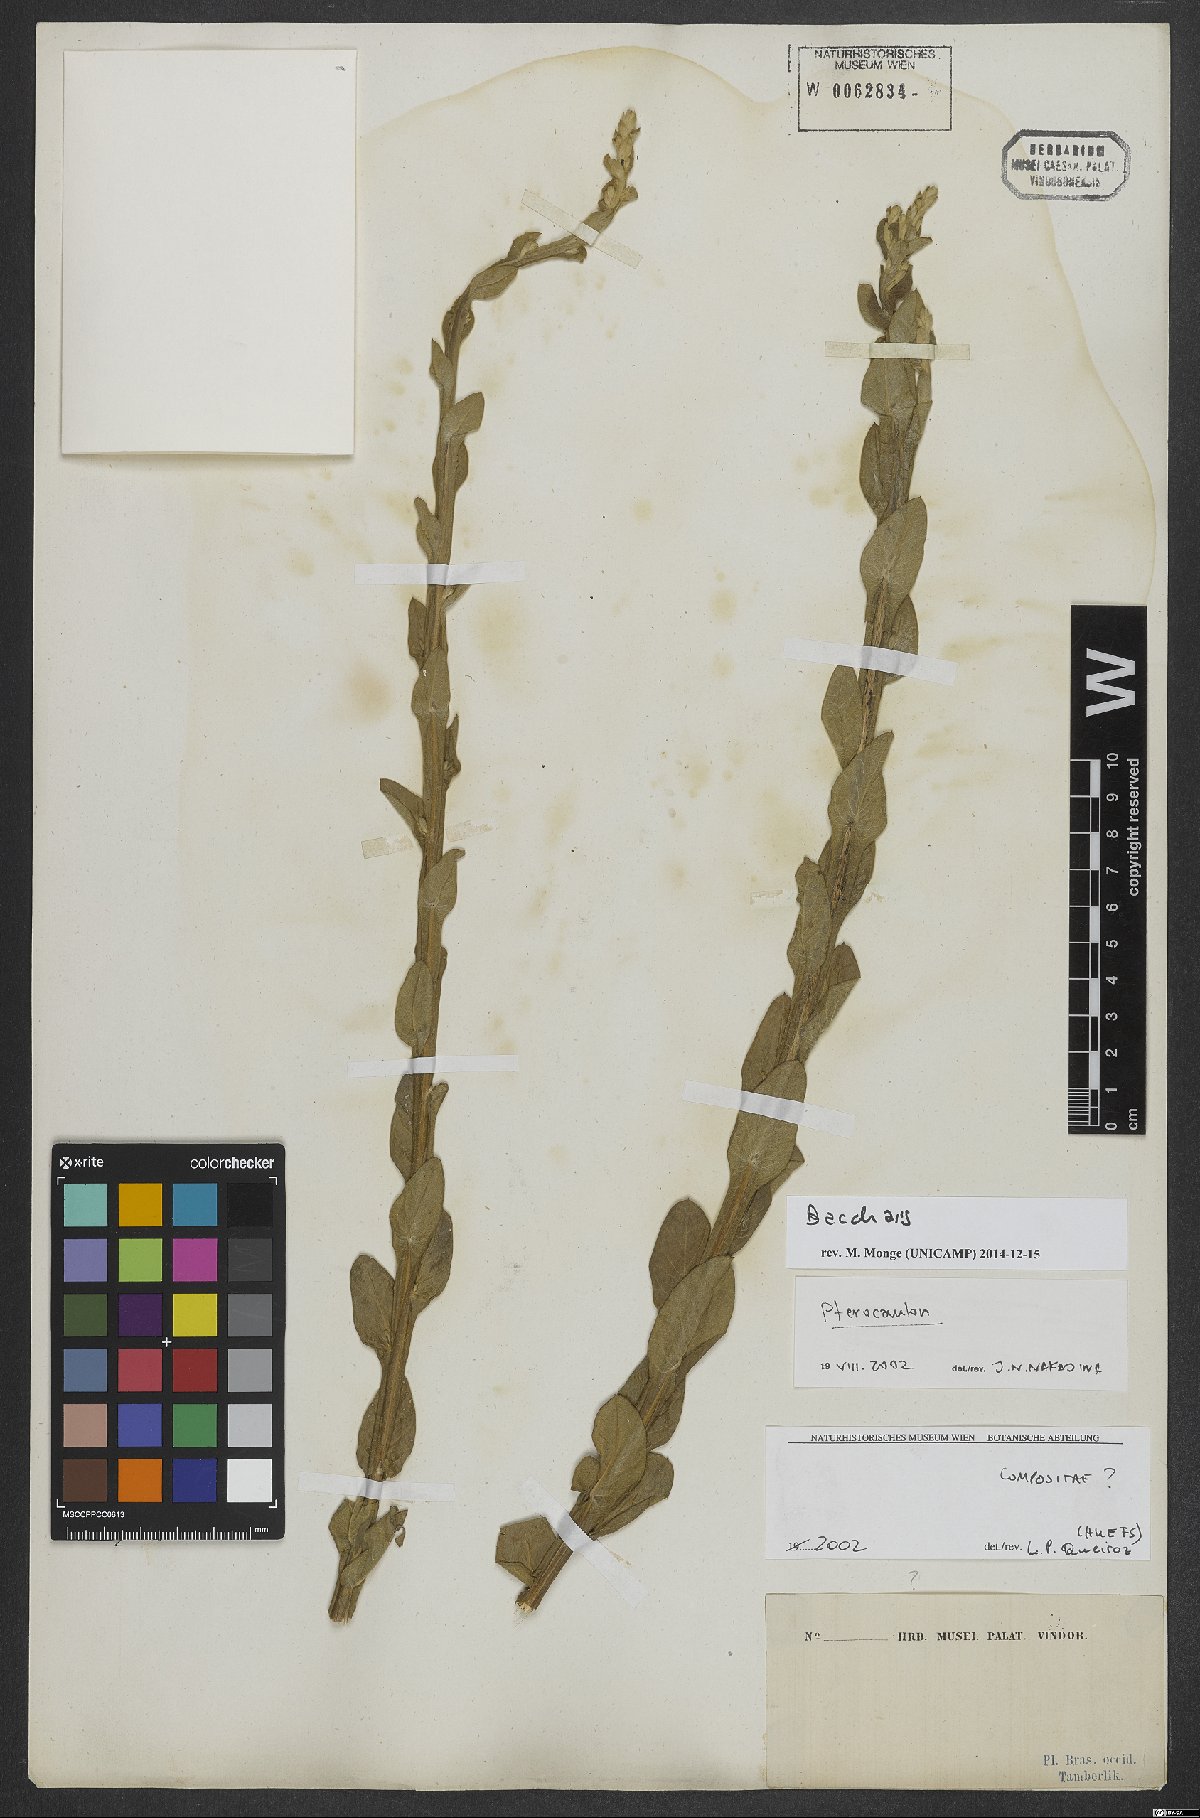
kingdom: Plantae
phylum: Tracheophyta
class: Magnoliopsida
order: Asterales
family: Asteraceae
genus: Baccharis
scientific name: Baccharis
